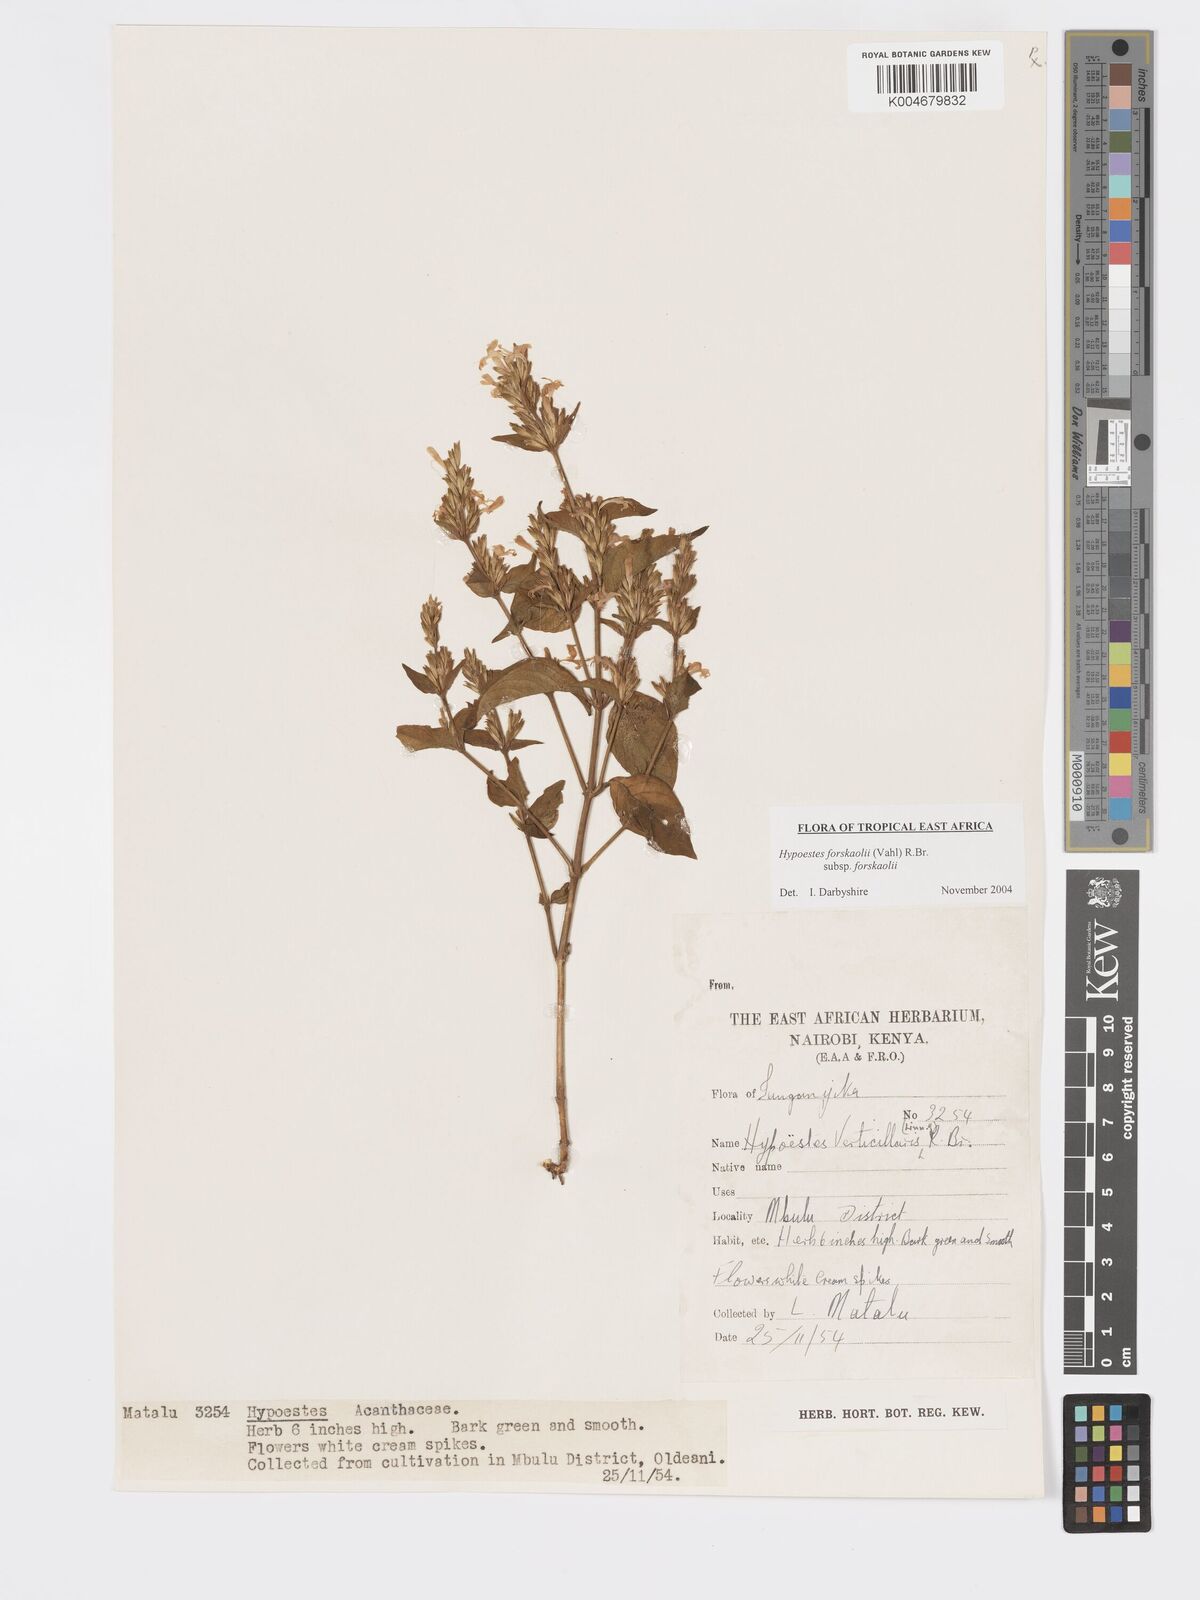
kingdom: Plantae
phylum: Tracheophyta
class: Magnoliopsida
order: Lamiales
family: Acanthaceae
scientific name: Acanthaceae
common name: Acanthaceae
